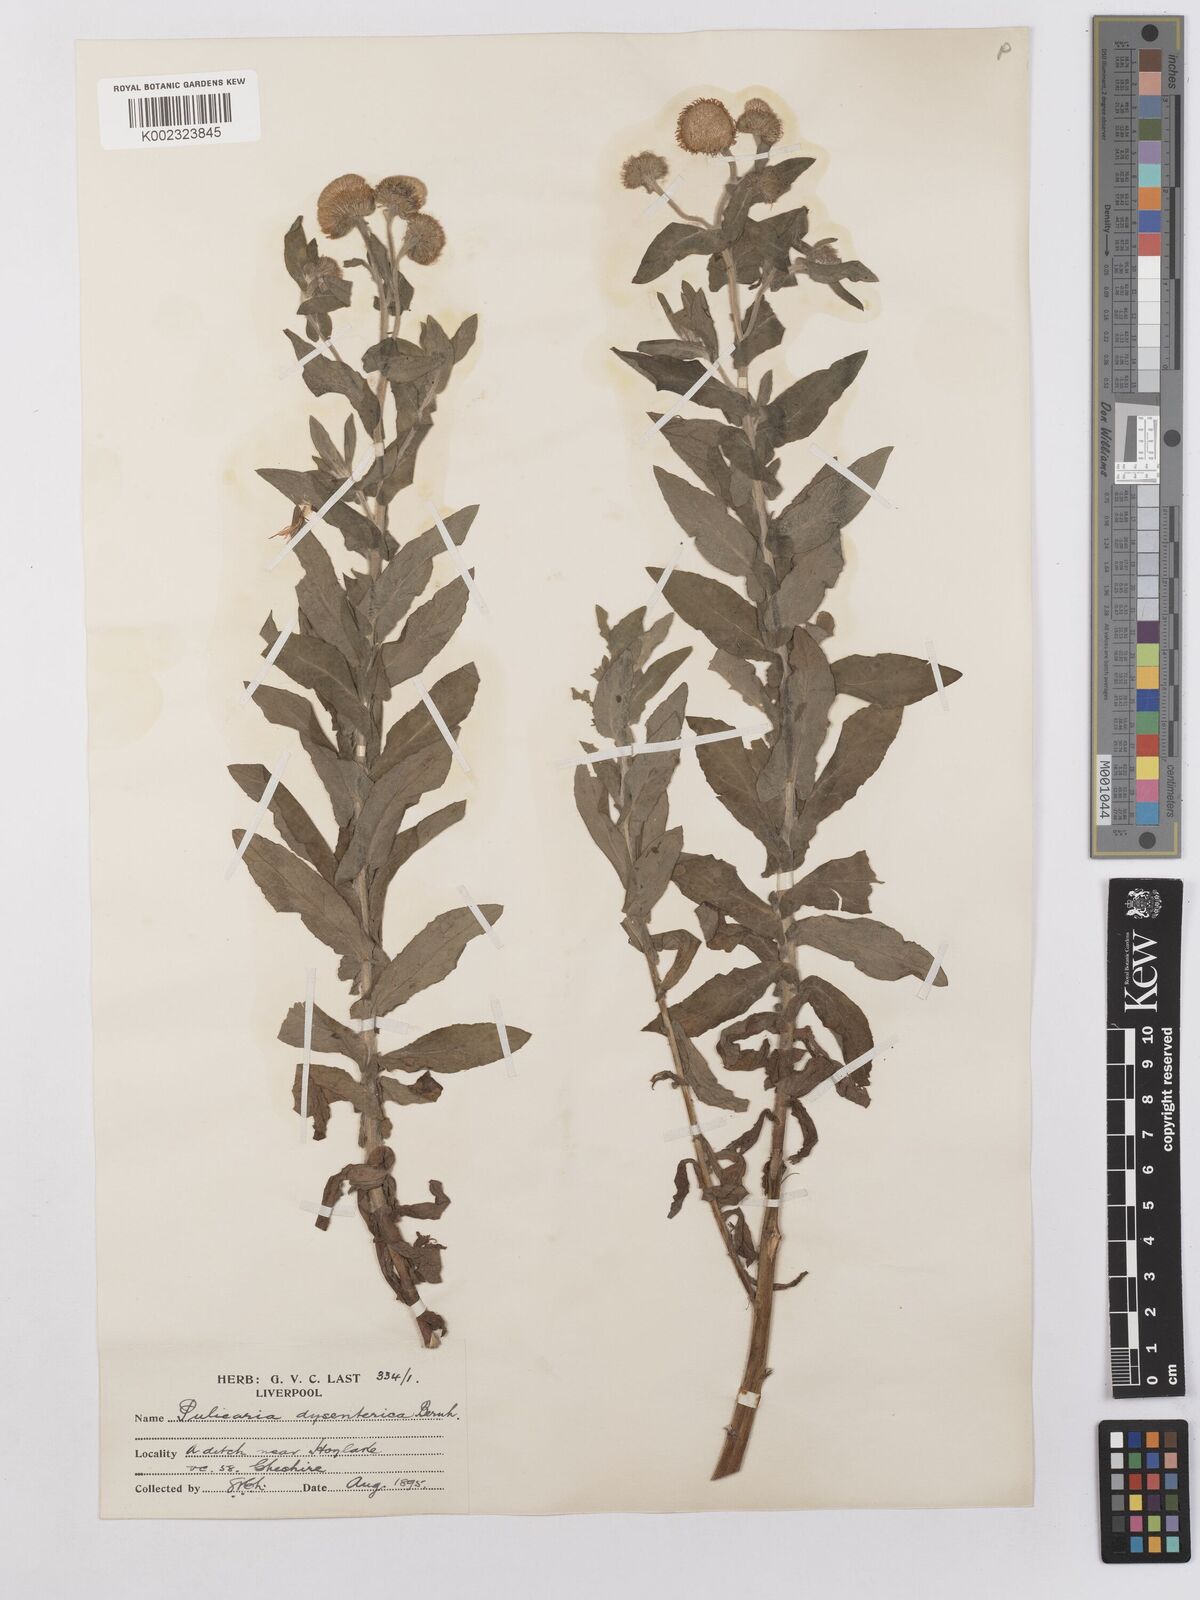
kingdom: Plantae
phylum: Tracheophyta
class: Magnoliopsida
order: Asterales
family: Asteraceae
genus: Pulicaria
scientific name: Pulicaria dysenterica
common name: Common fleabane
